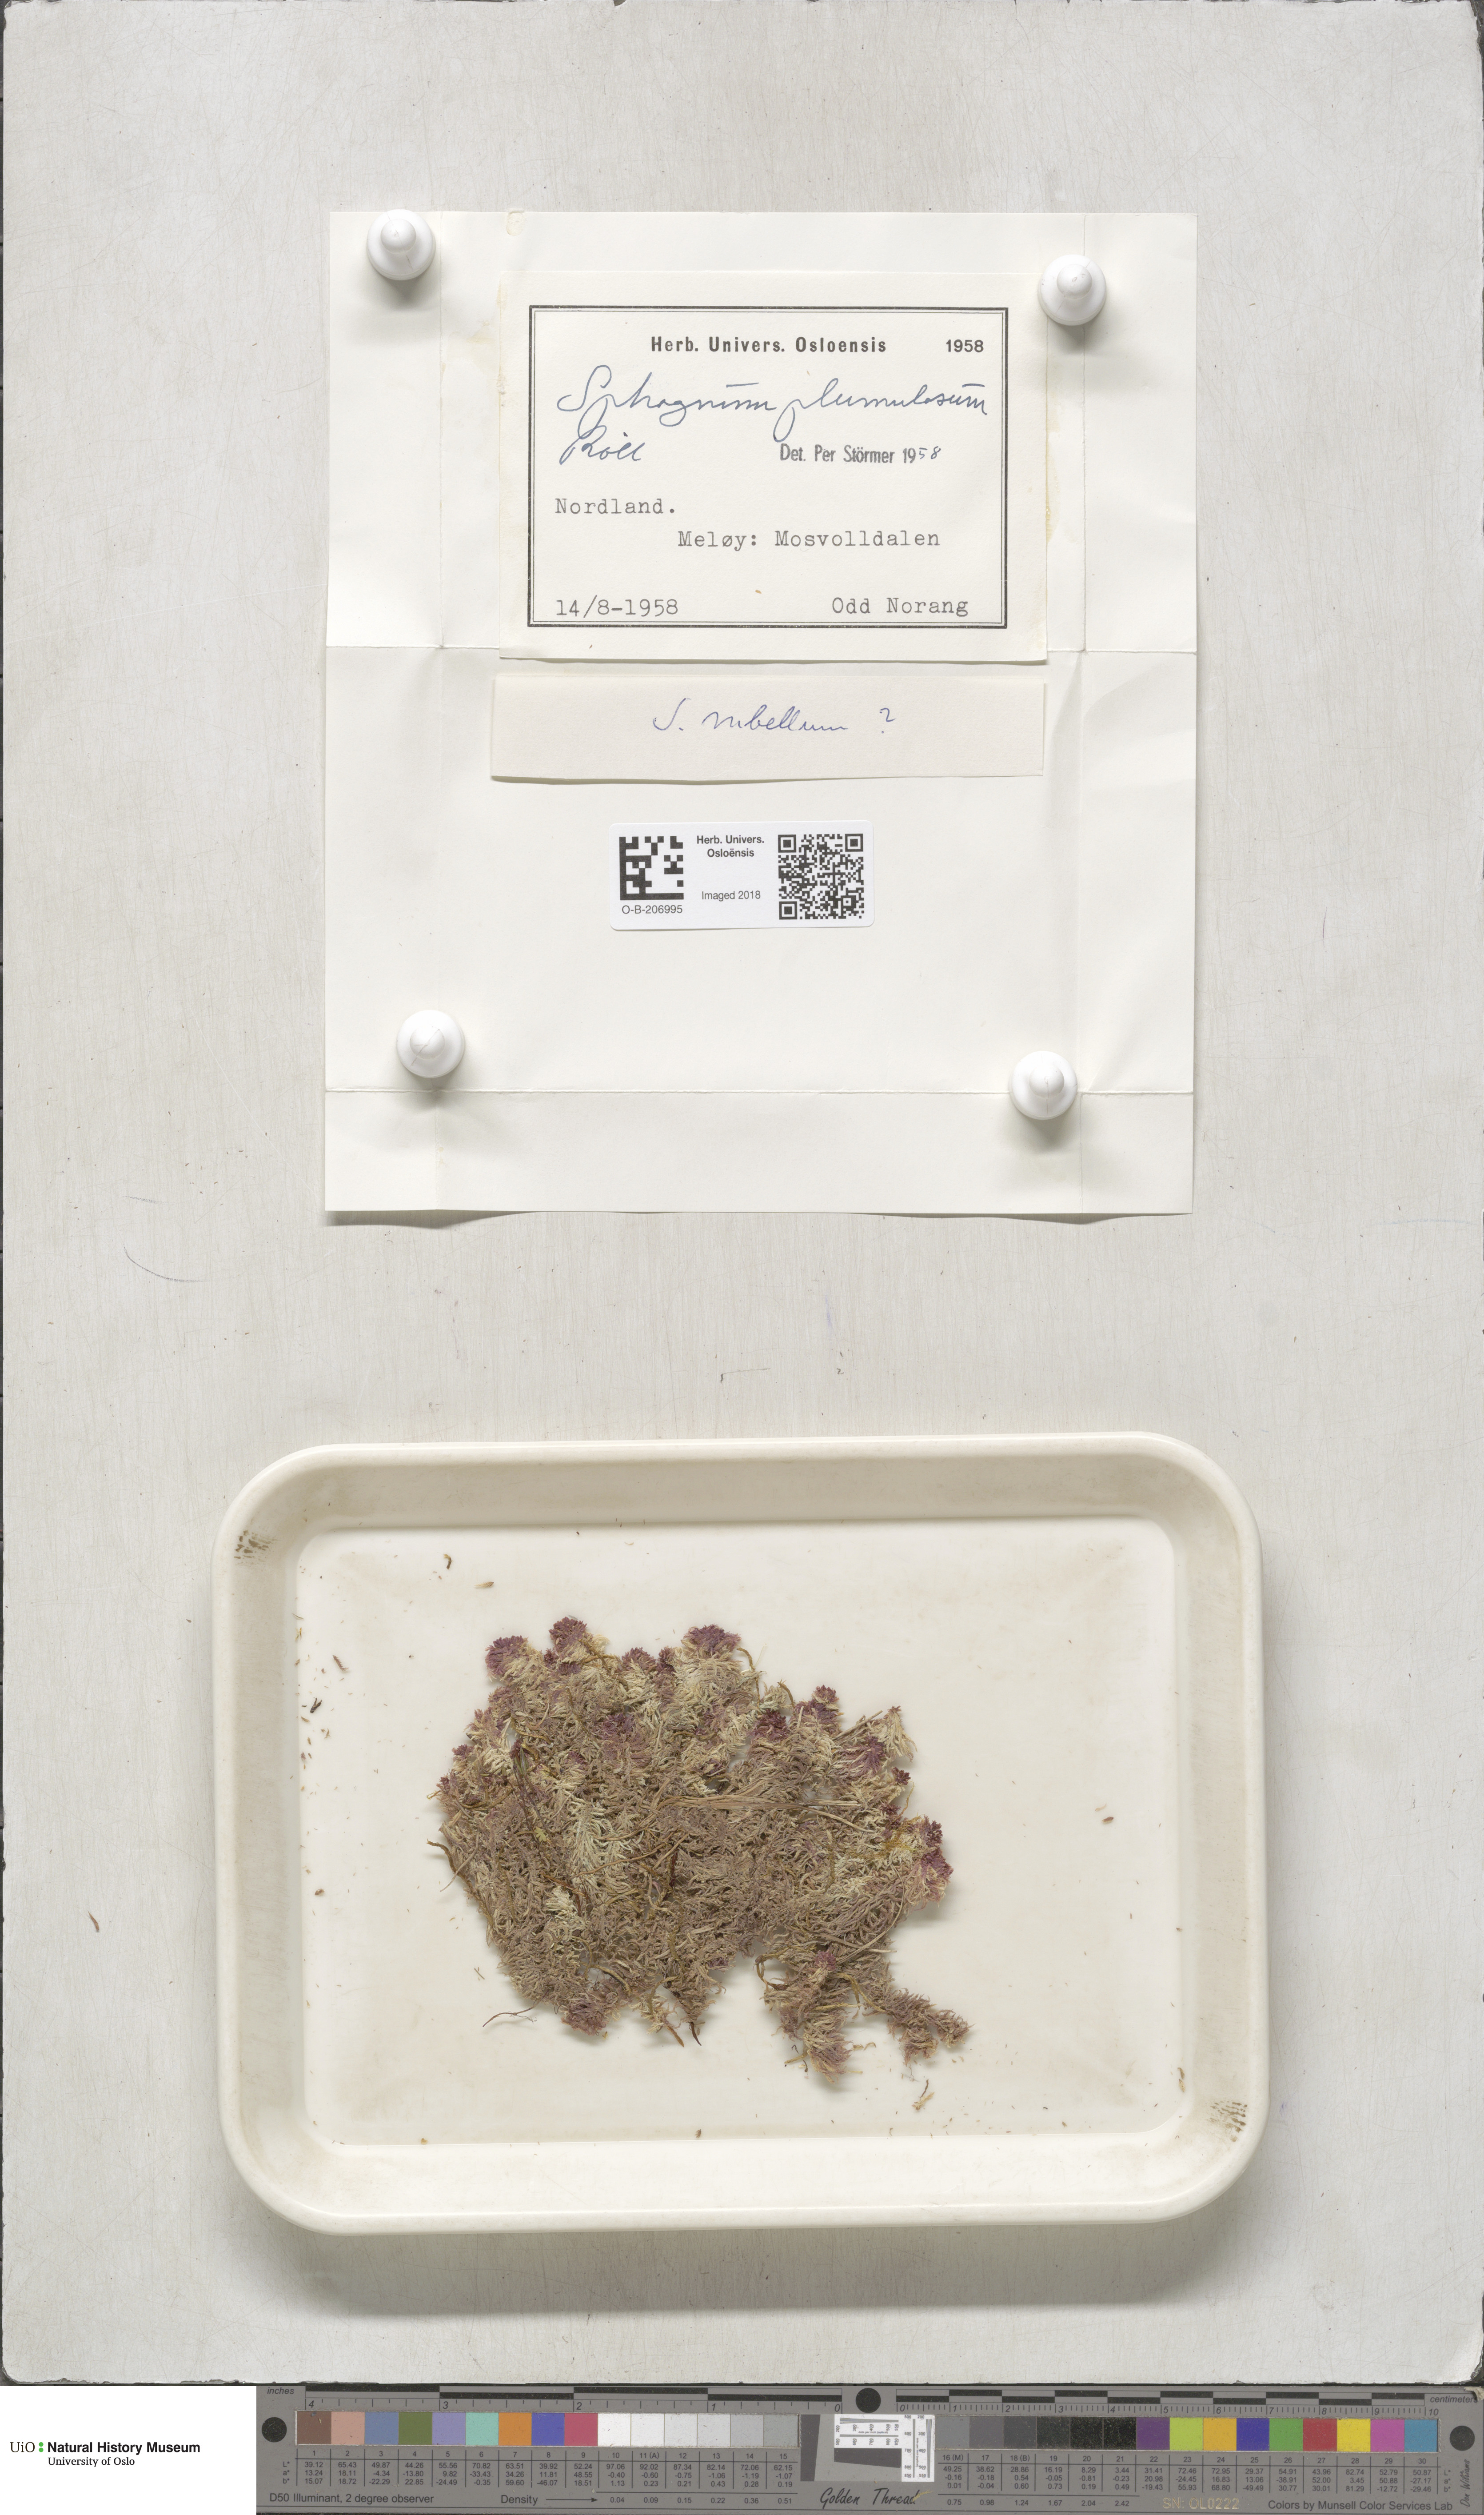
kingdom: Plantae
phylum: Bryophyta
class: Sphagnopsida
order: Sphagnales
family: Sphagnaceae
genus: Sphagnum
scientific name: Sphagnum subnitens
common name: Lustrous bog-moss
